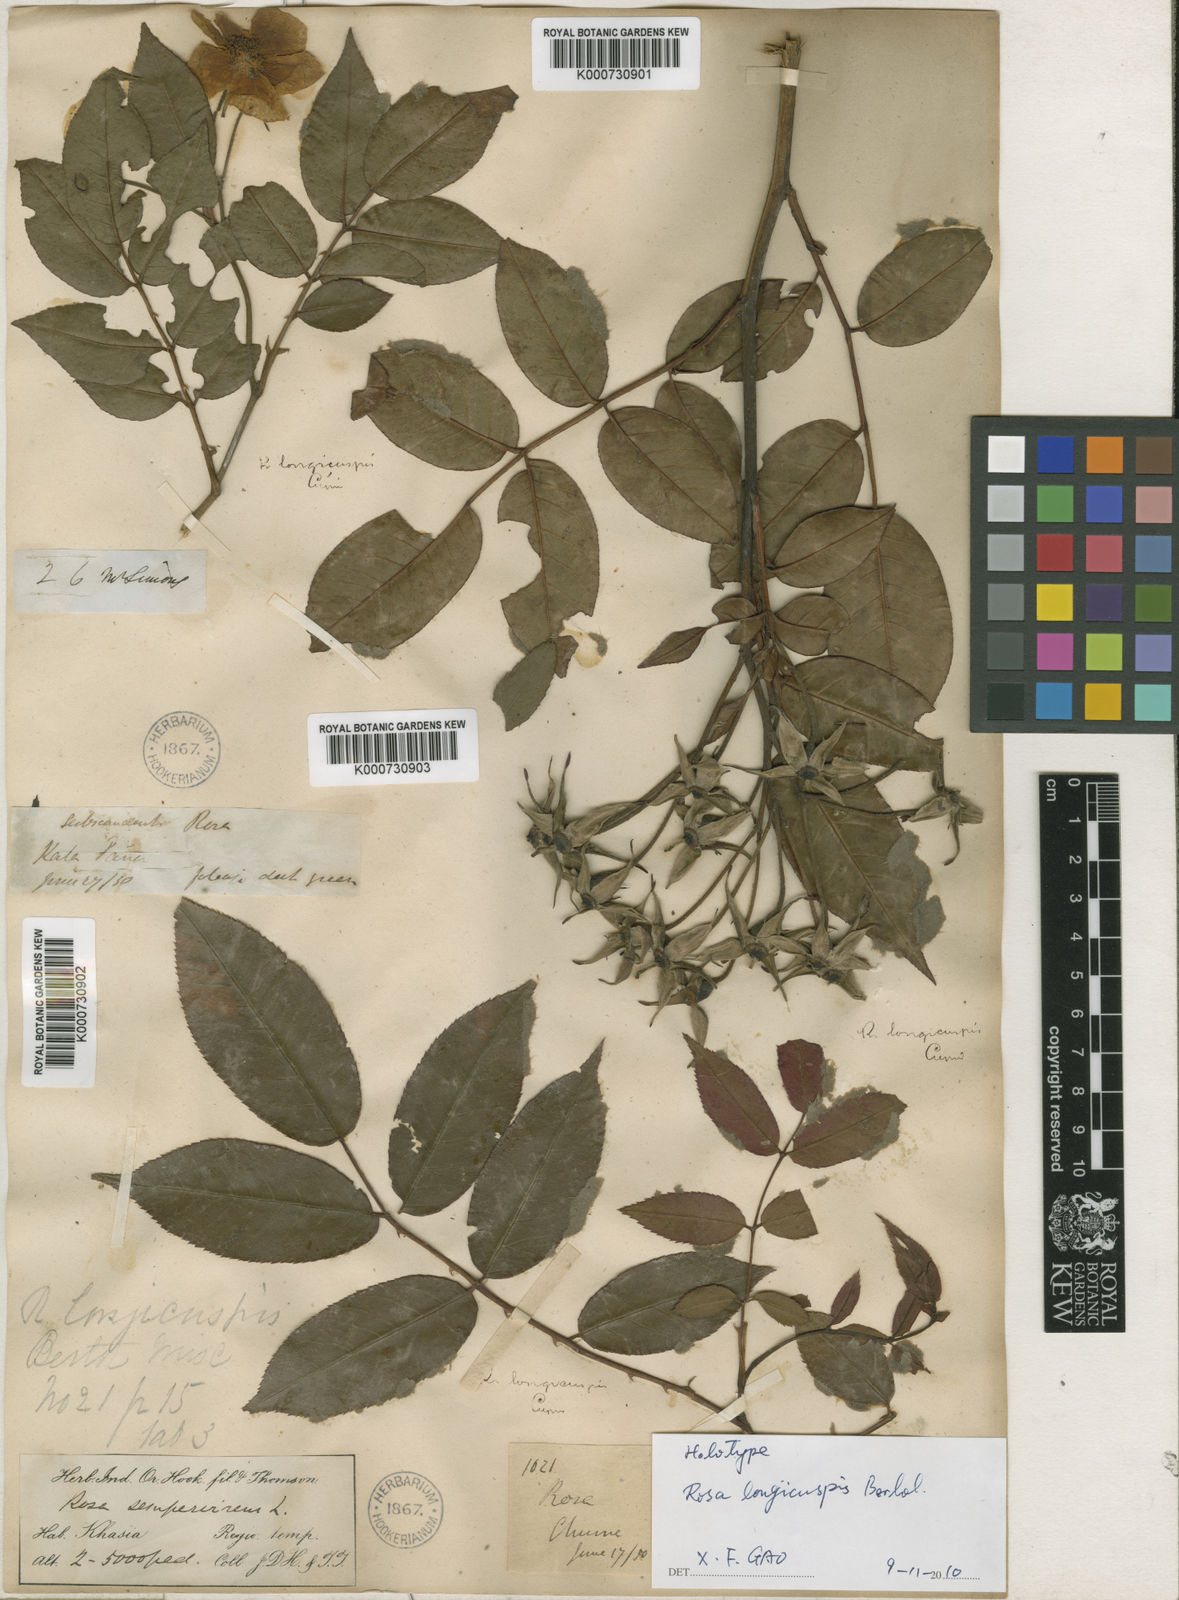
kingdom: Plantae
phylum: Tracheophyta
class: Magnoliopsida
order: Rosales
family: Rosaceae
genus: Rosa
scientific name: Rosa longicuspis
